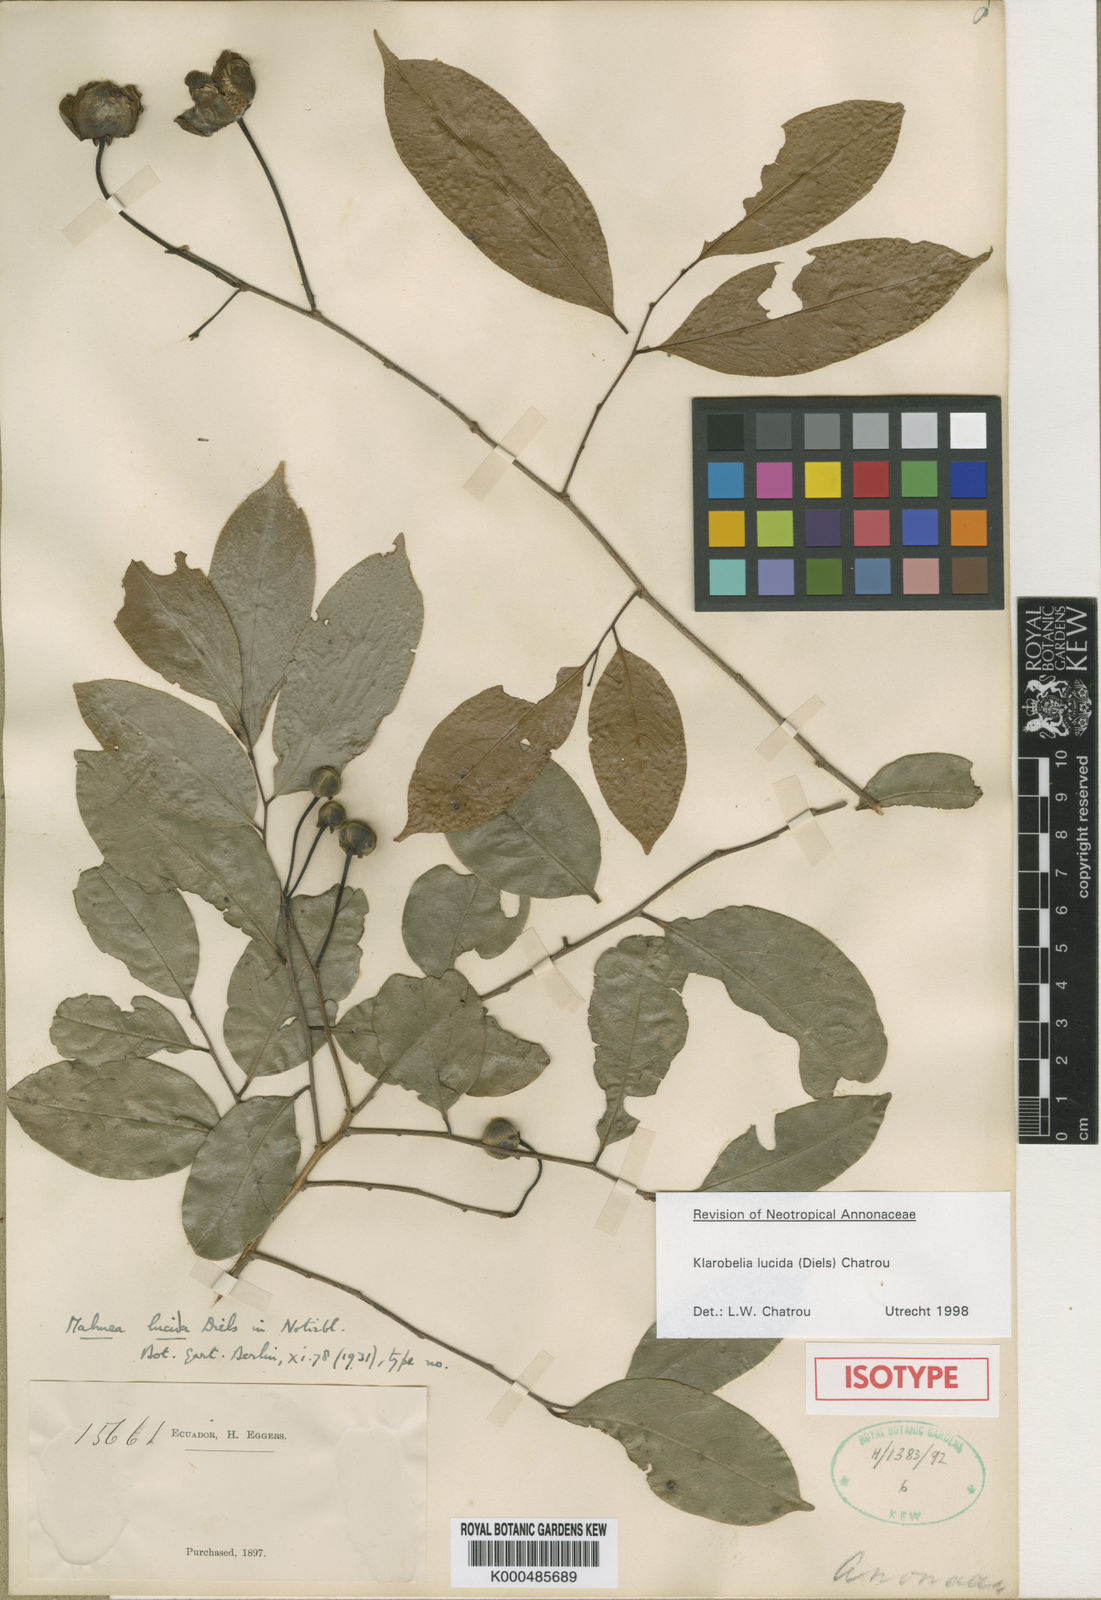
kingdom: Plantae
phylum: Tracheophyta
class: Magnoliopsida
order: Magnoliales
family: Annonaceae
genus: Klarobelia
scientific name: Klarobelia lucida
